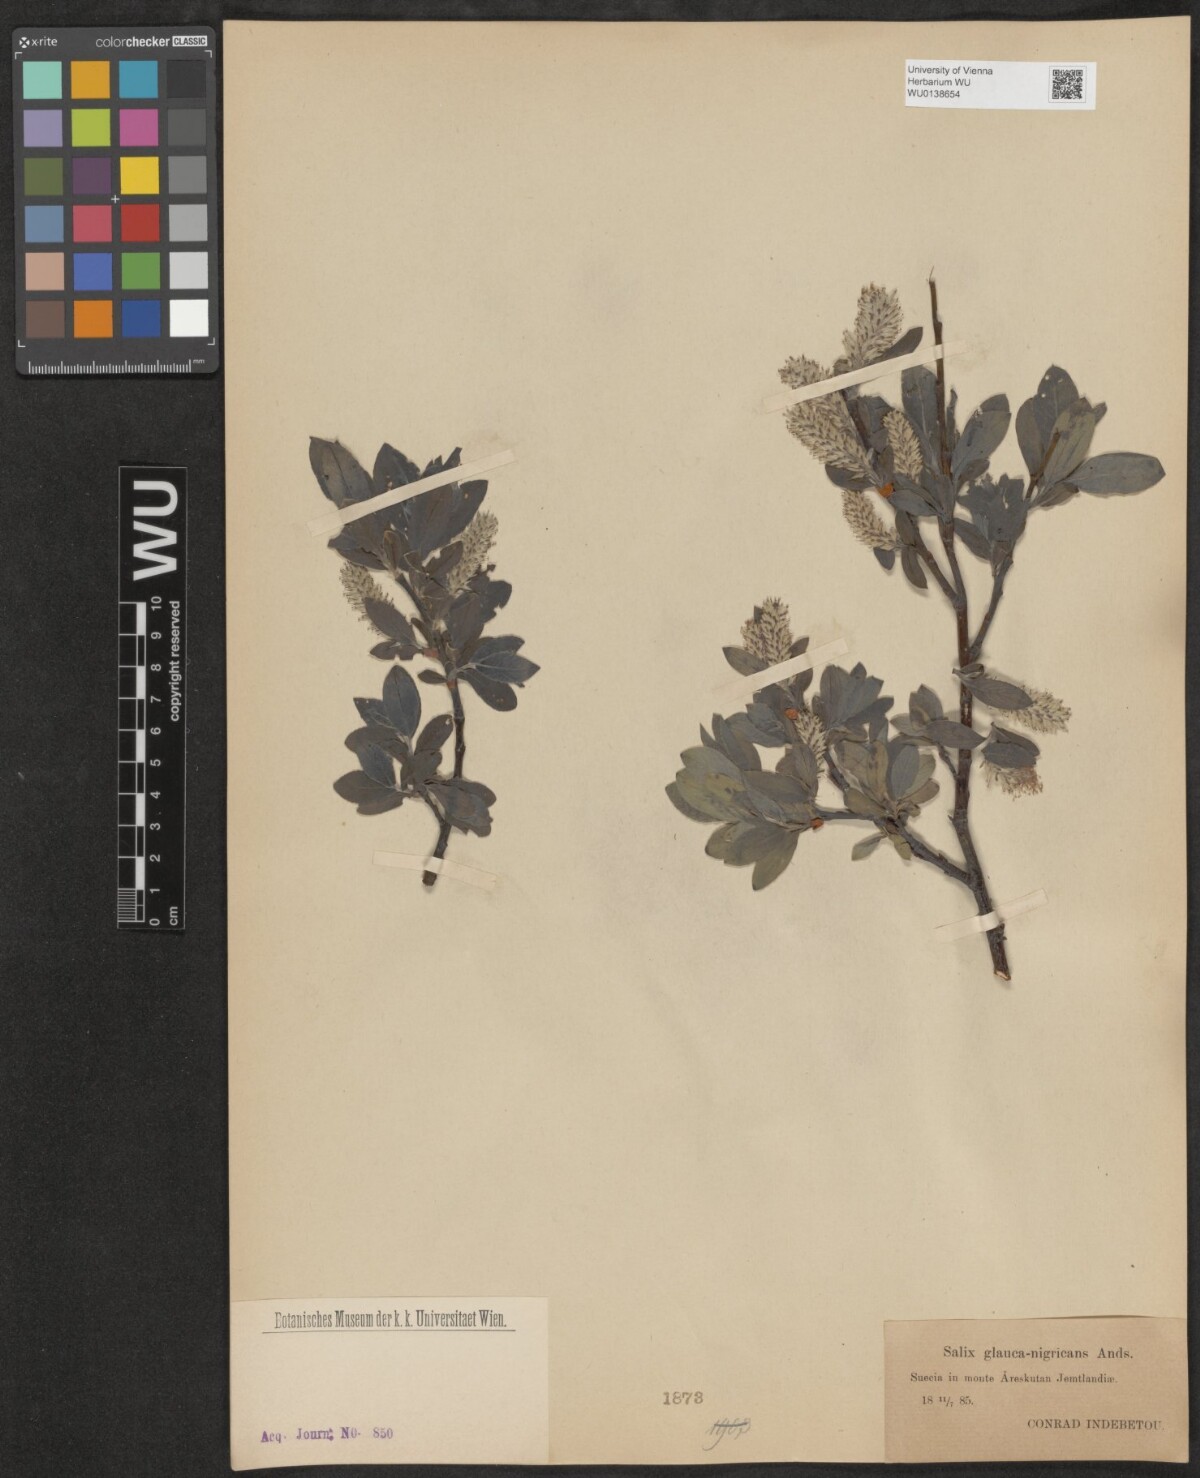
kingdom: Plantae
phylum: Tracheophyta
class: Magnoliopsida
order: Malpighiales
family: Salicaceae
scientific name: Salicaceae
